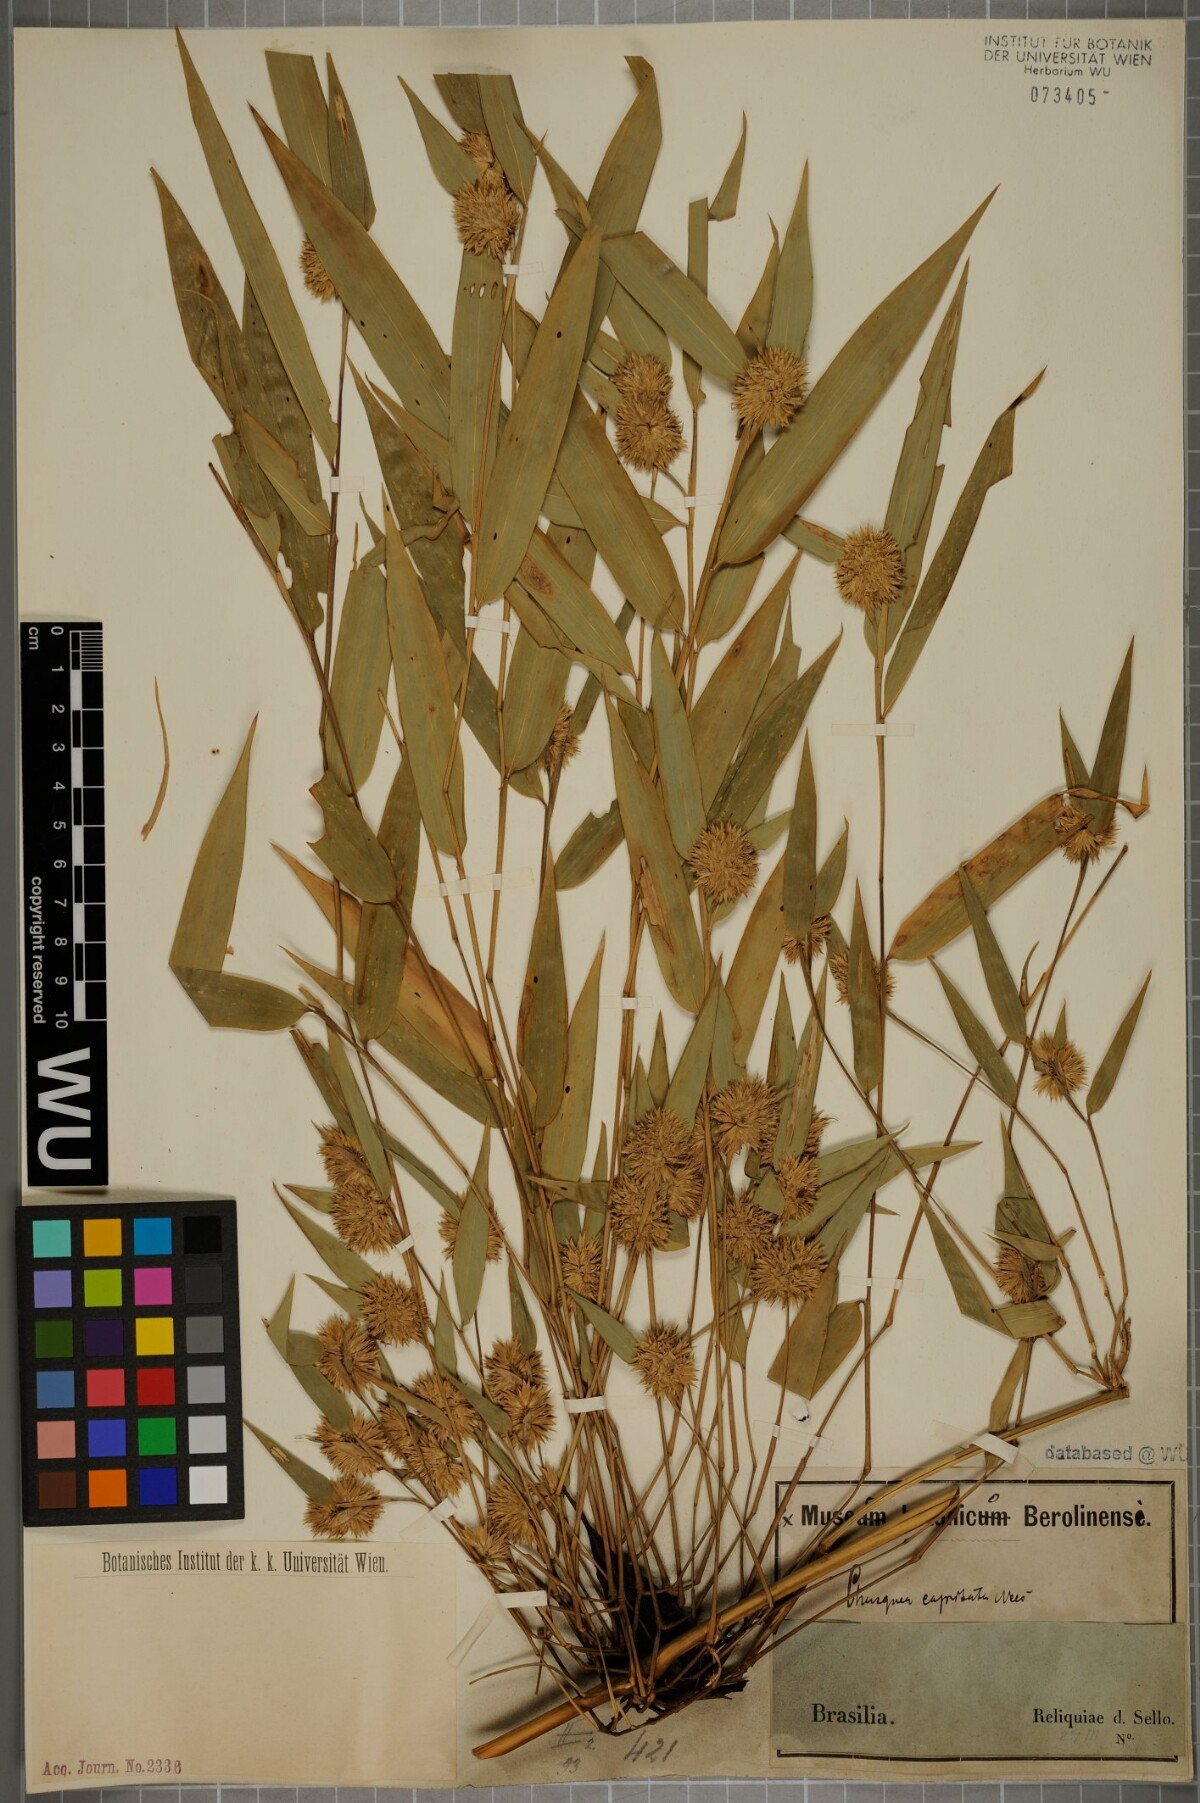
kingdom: Plantae
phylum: Tracheophyta
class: Liliopsida
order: Poales
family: Poaceae
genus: Chusquea
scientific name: Chusquea capitata
